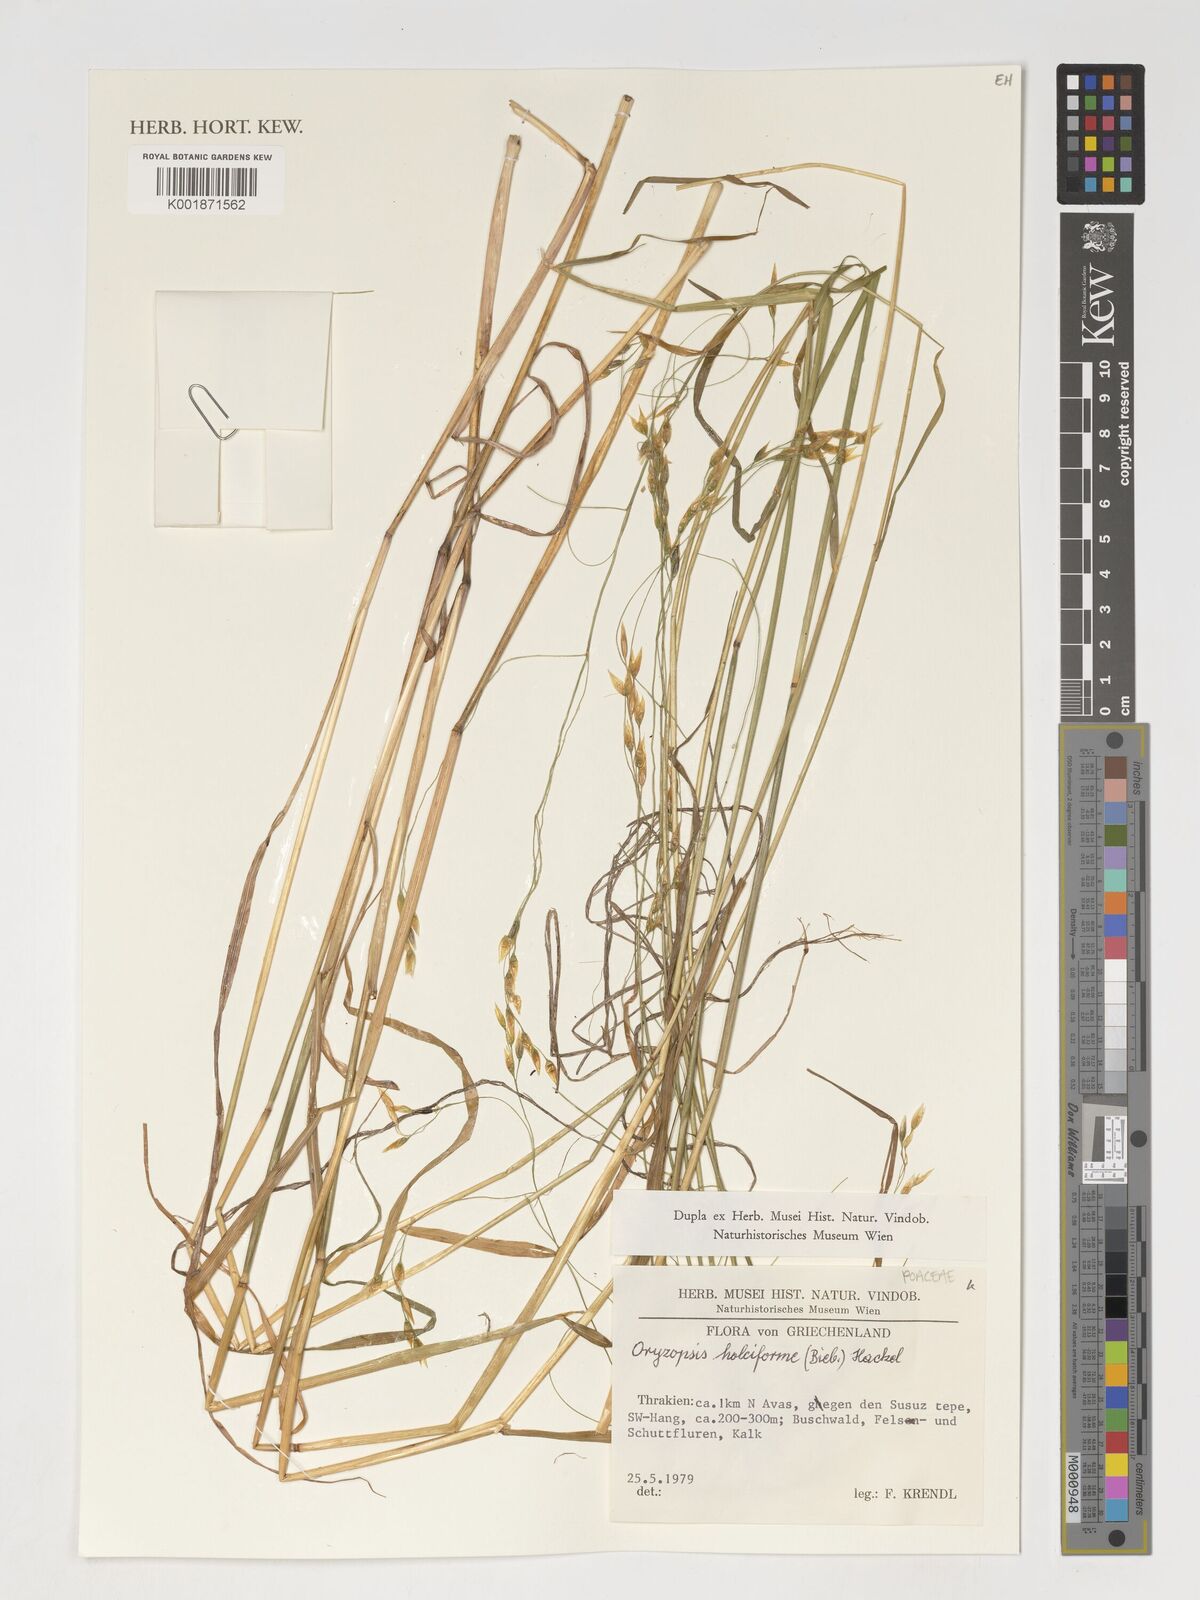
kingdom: Plantae
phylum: Tracheophyta
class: Liliopsida
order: Poales
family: Poaceae
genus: Oryzopsis
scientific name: Oryzopsis
